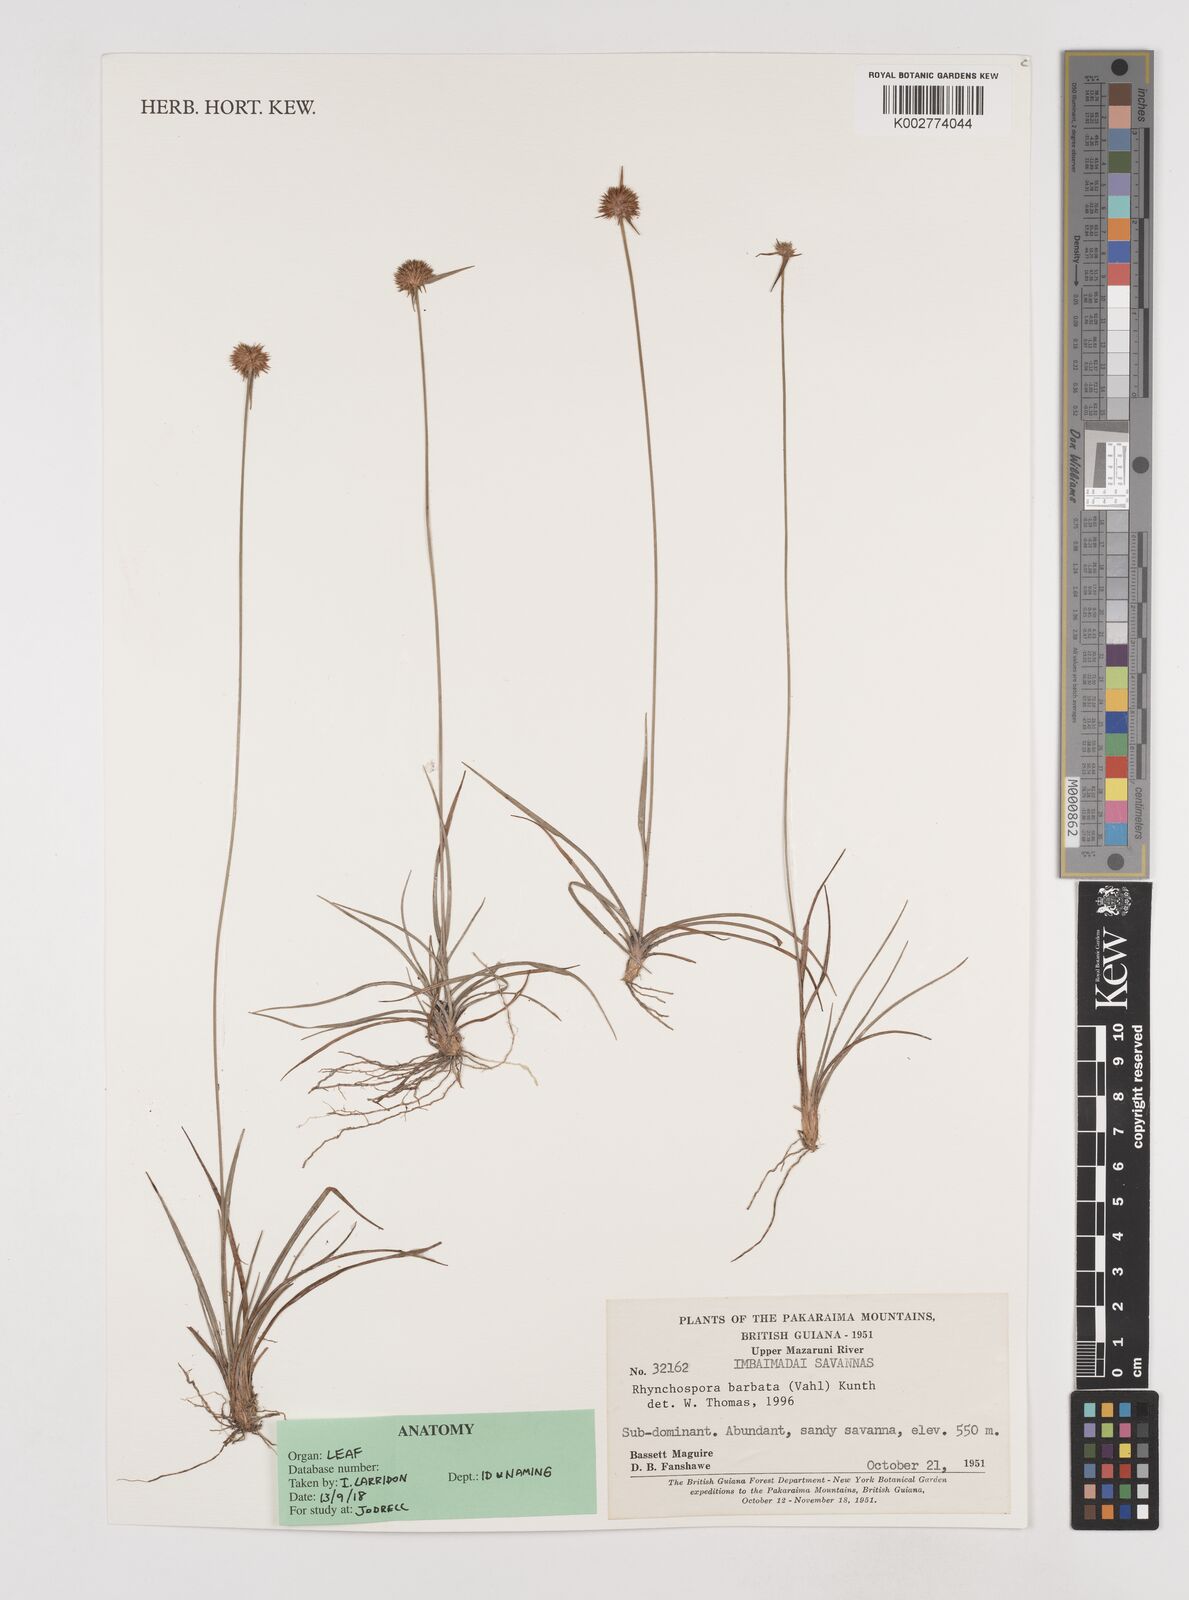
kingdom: Plantae
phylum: Tracheophyta
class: Liliopsida
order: Poales
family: Cyperaceae
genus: Rhynchospora
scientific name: Rhynchospora barbata
